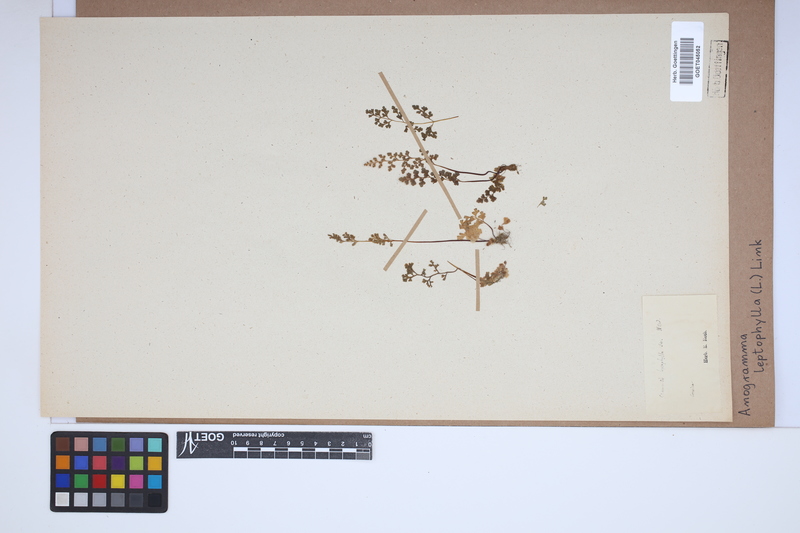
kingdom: Plantae
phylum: Tracheophyta
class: Polypodiopsida
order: Polypodiales
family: Pteridaceae
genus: Anogramma
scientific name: Anogramma leptophylla
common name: Jersey fern
